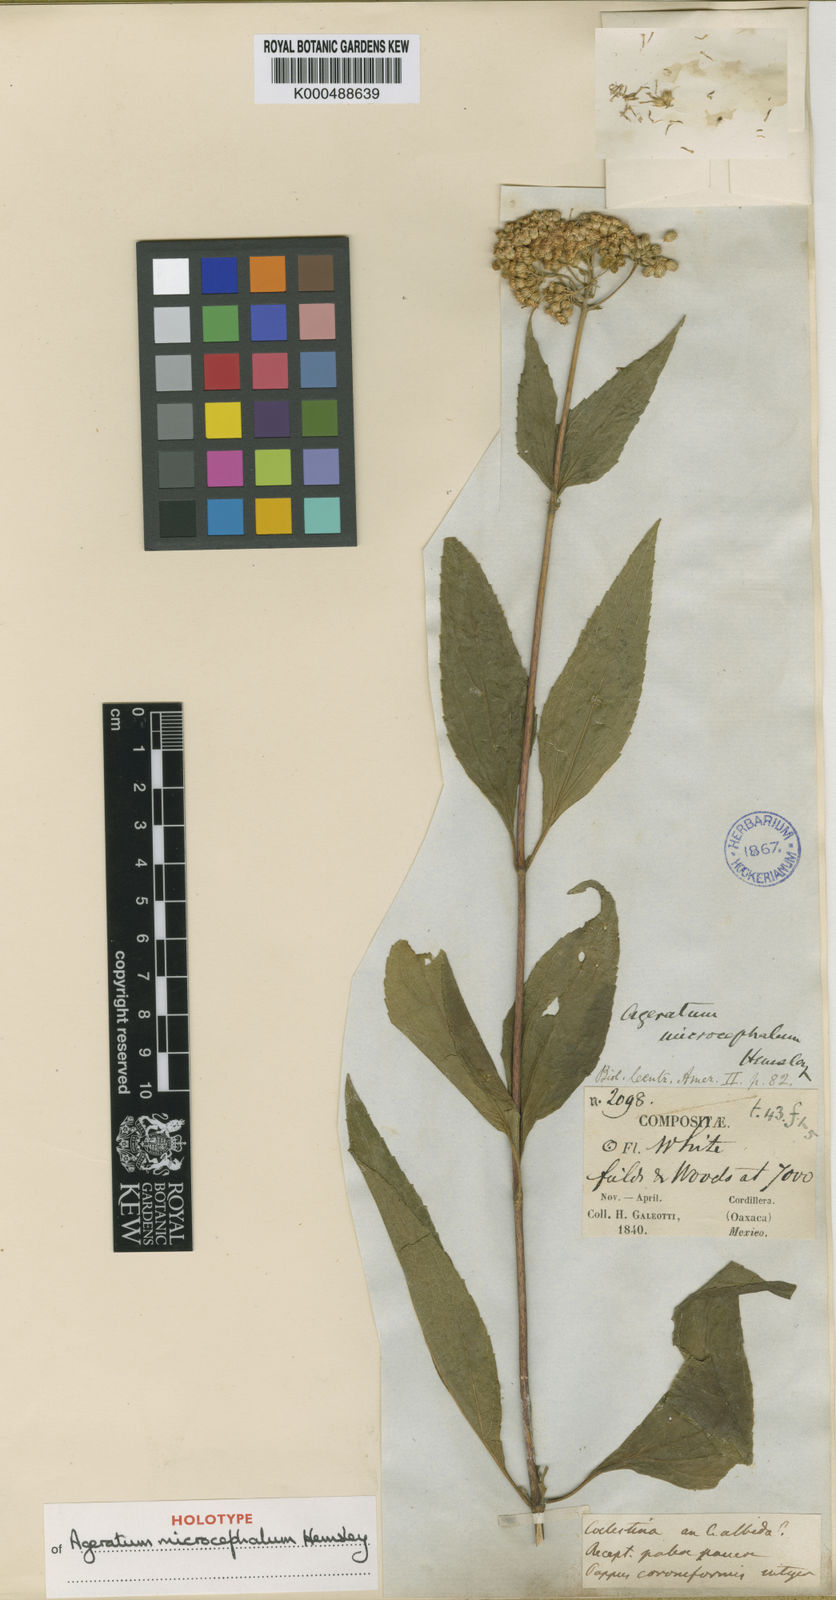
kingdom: Plantae
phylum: Tracheophyta
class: Magnoliopsida
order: Asterales
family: Asteraceae
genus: Ageratum
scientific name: Ageratum microcephalum
